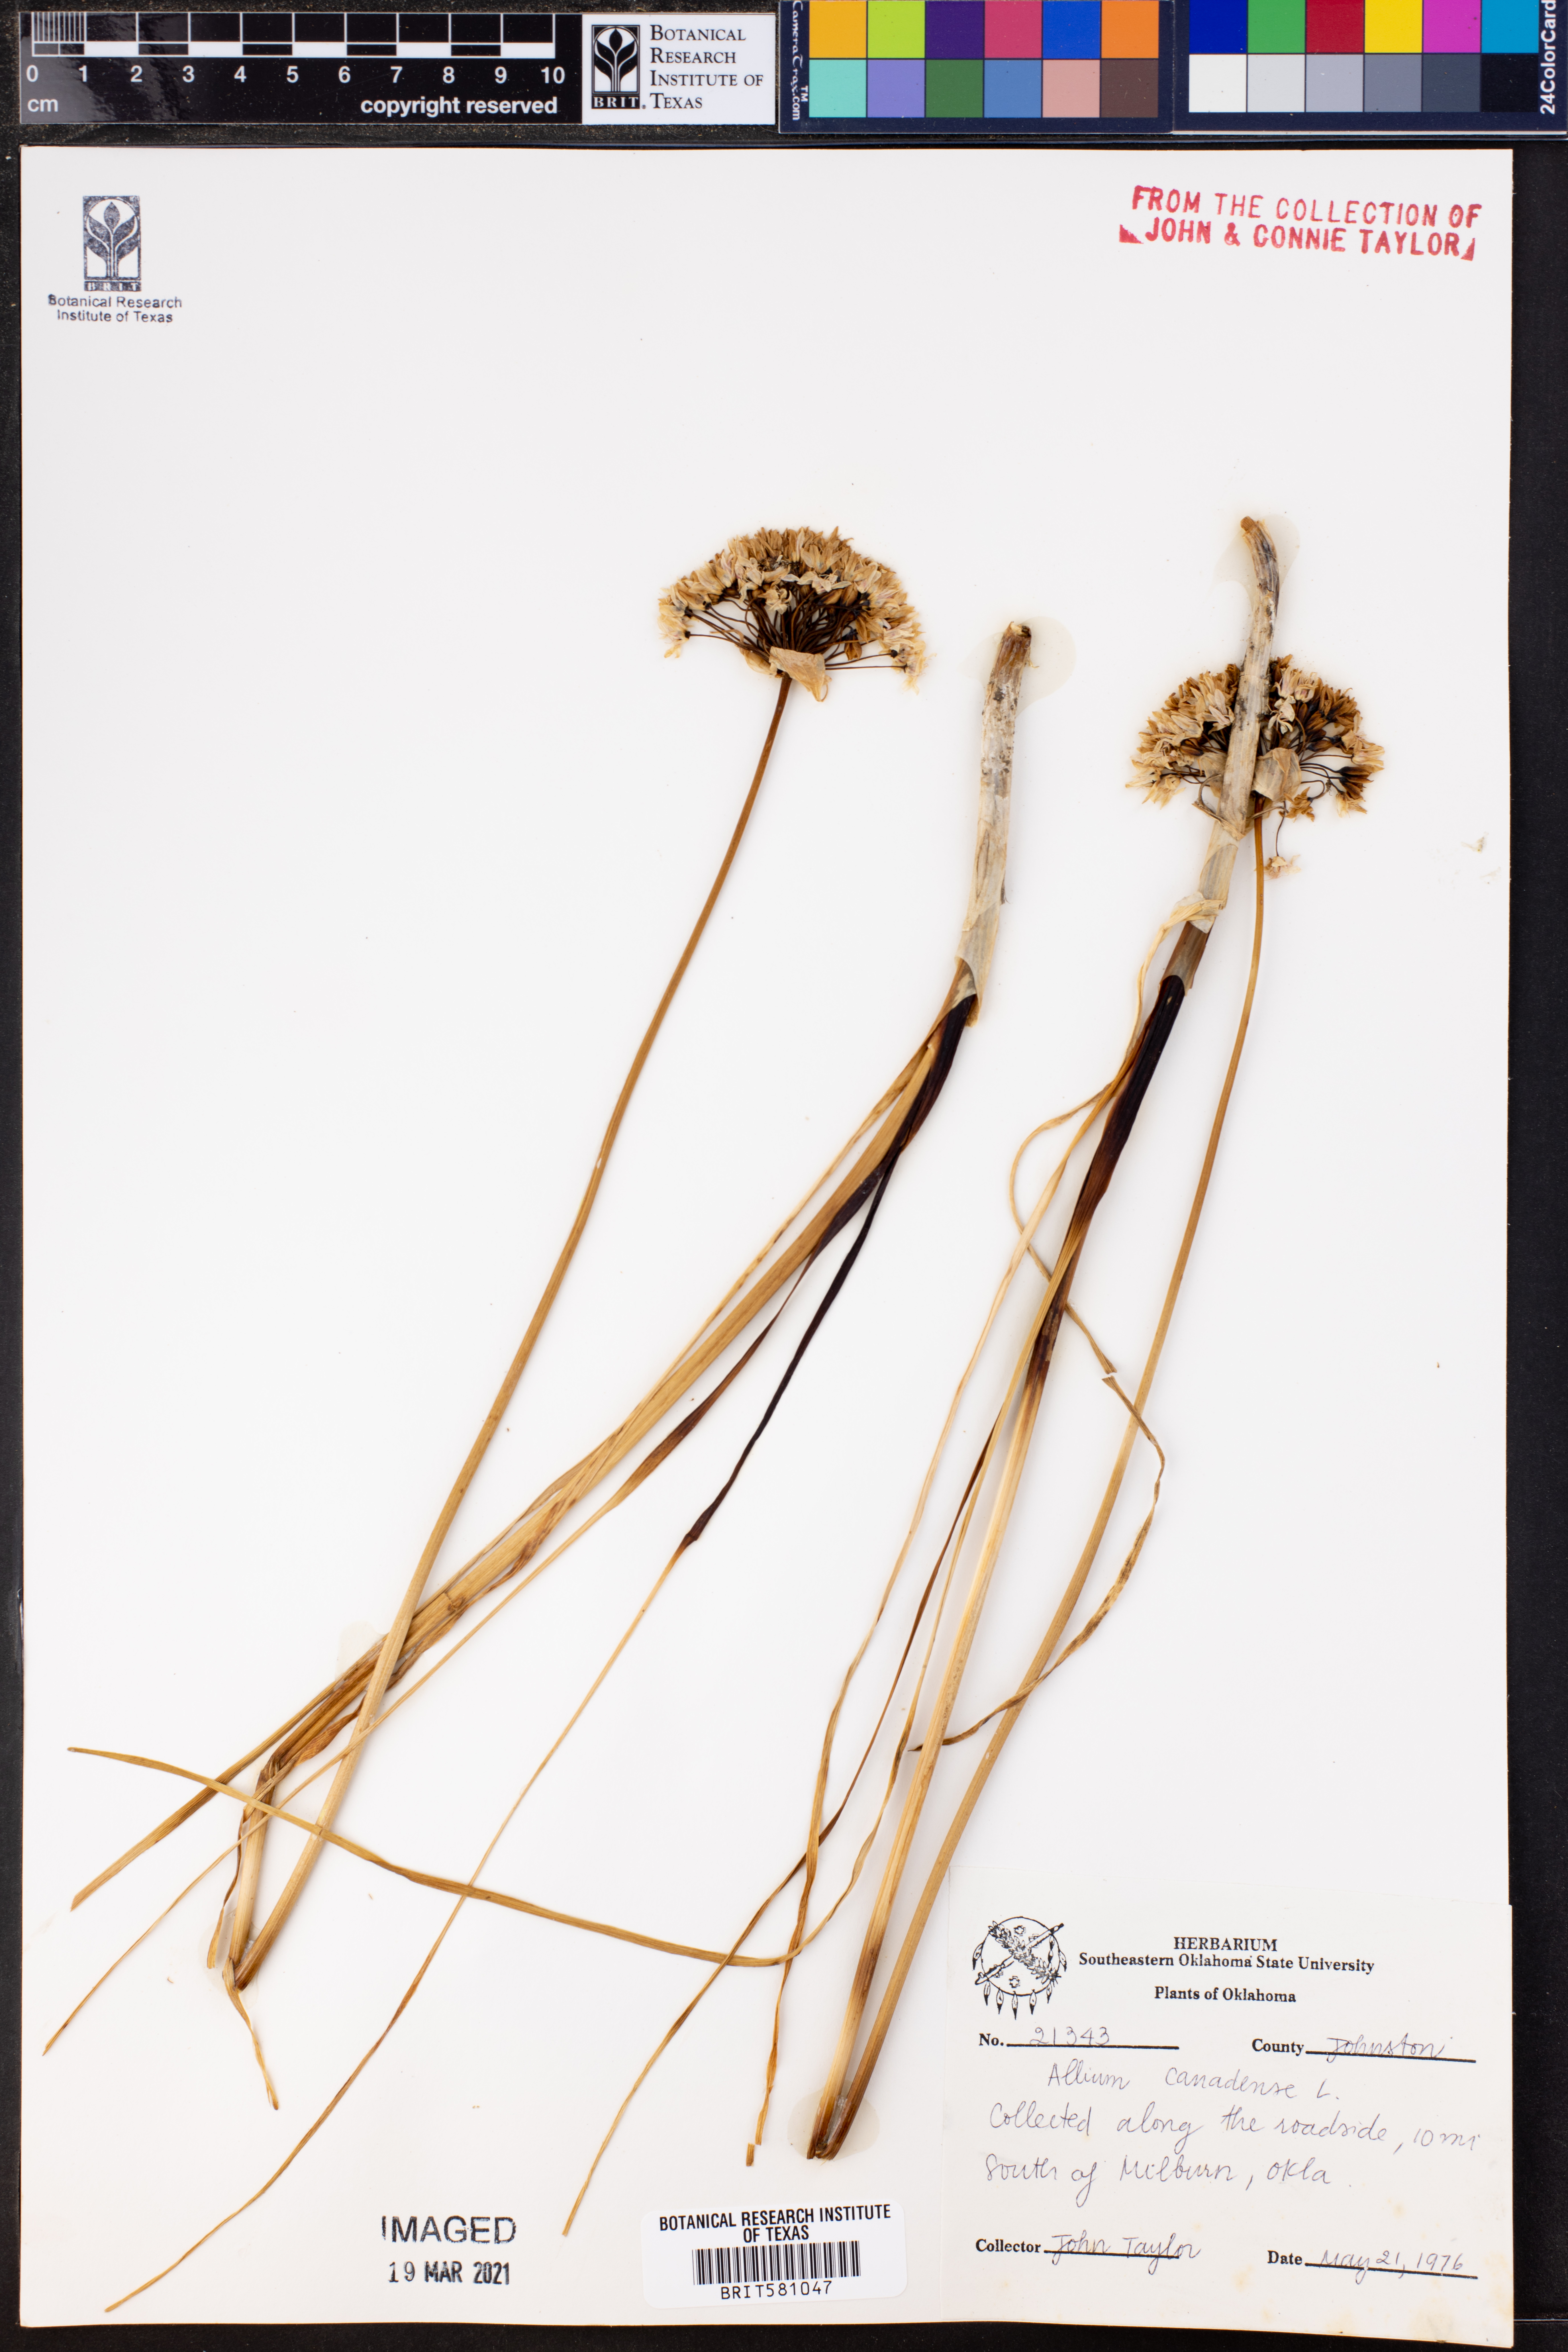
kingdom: Plantae
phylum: Tracheophyta
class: Liliopsida
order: Asparagales
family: Amaryllidaceae
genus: Allium
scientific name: Allium canadense
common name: Meadow garlic
